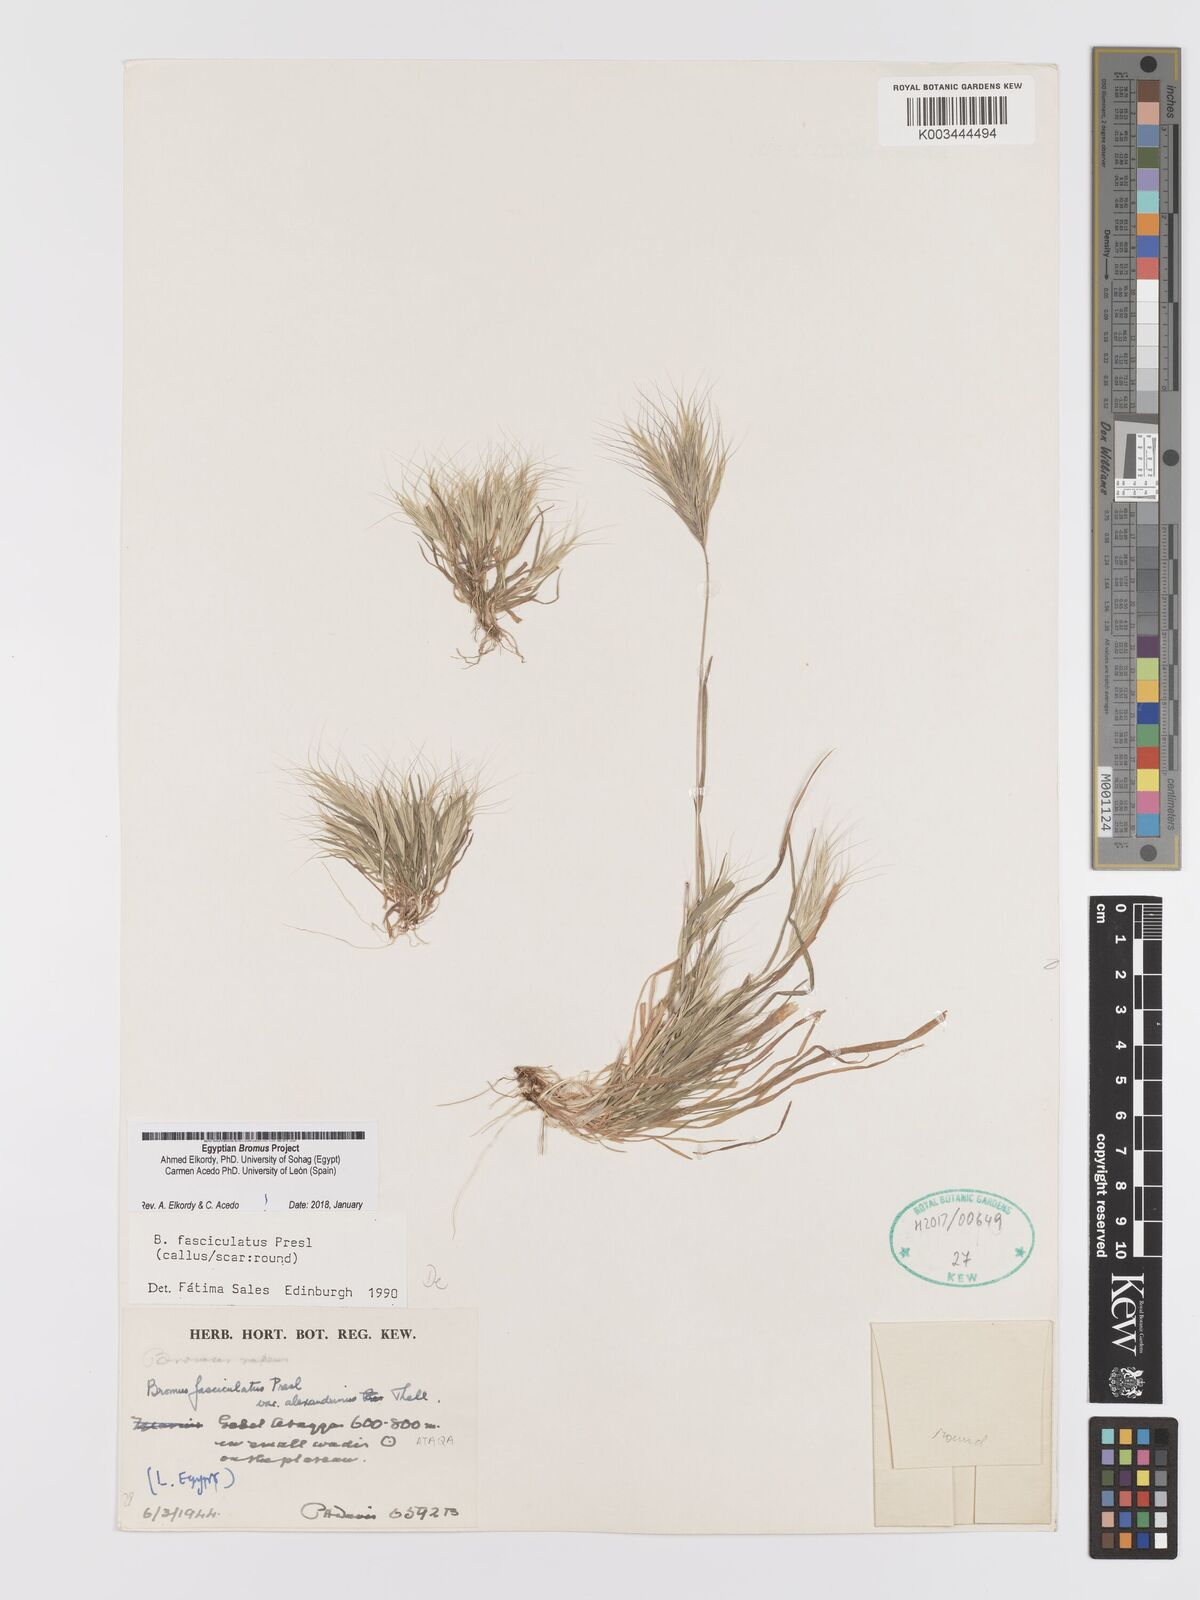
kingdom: Plantae
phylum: Tracheophyta
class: Liliopsida
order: Poales
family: Poaceae
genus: Bromus
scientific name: Bromus fasciculatus
